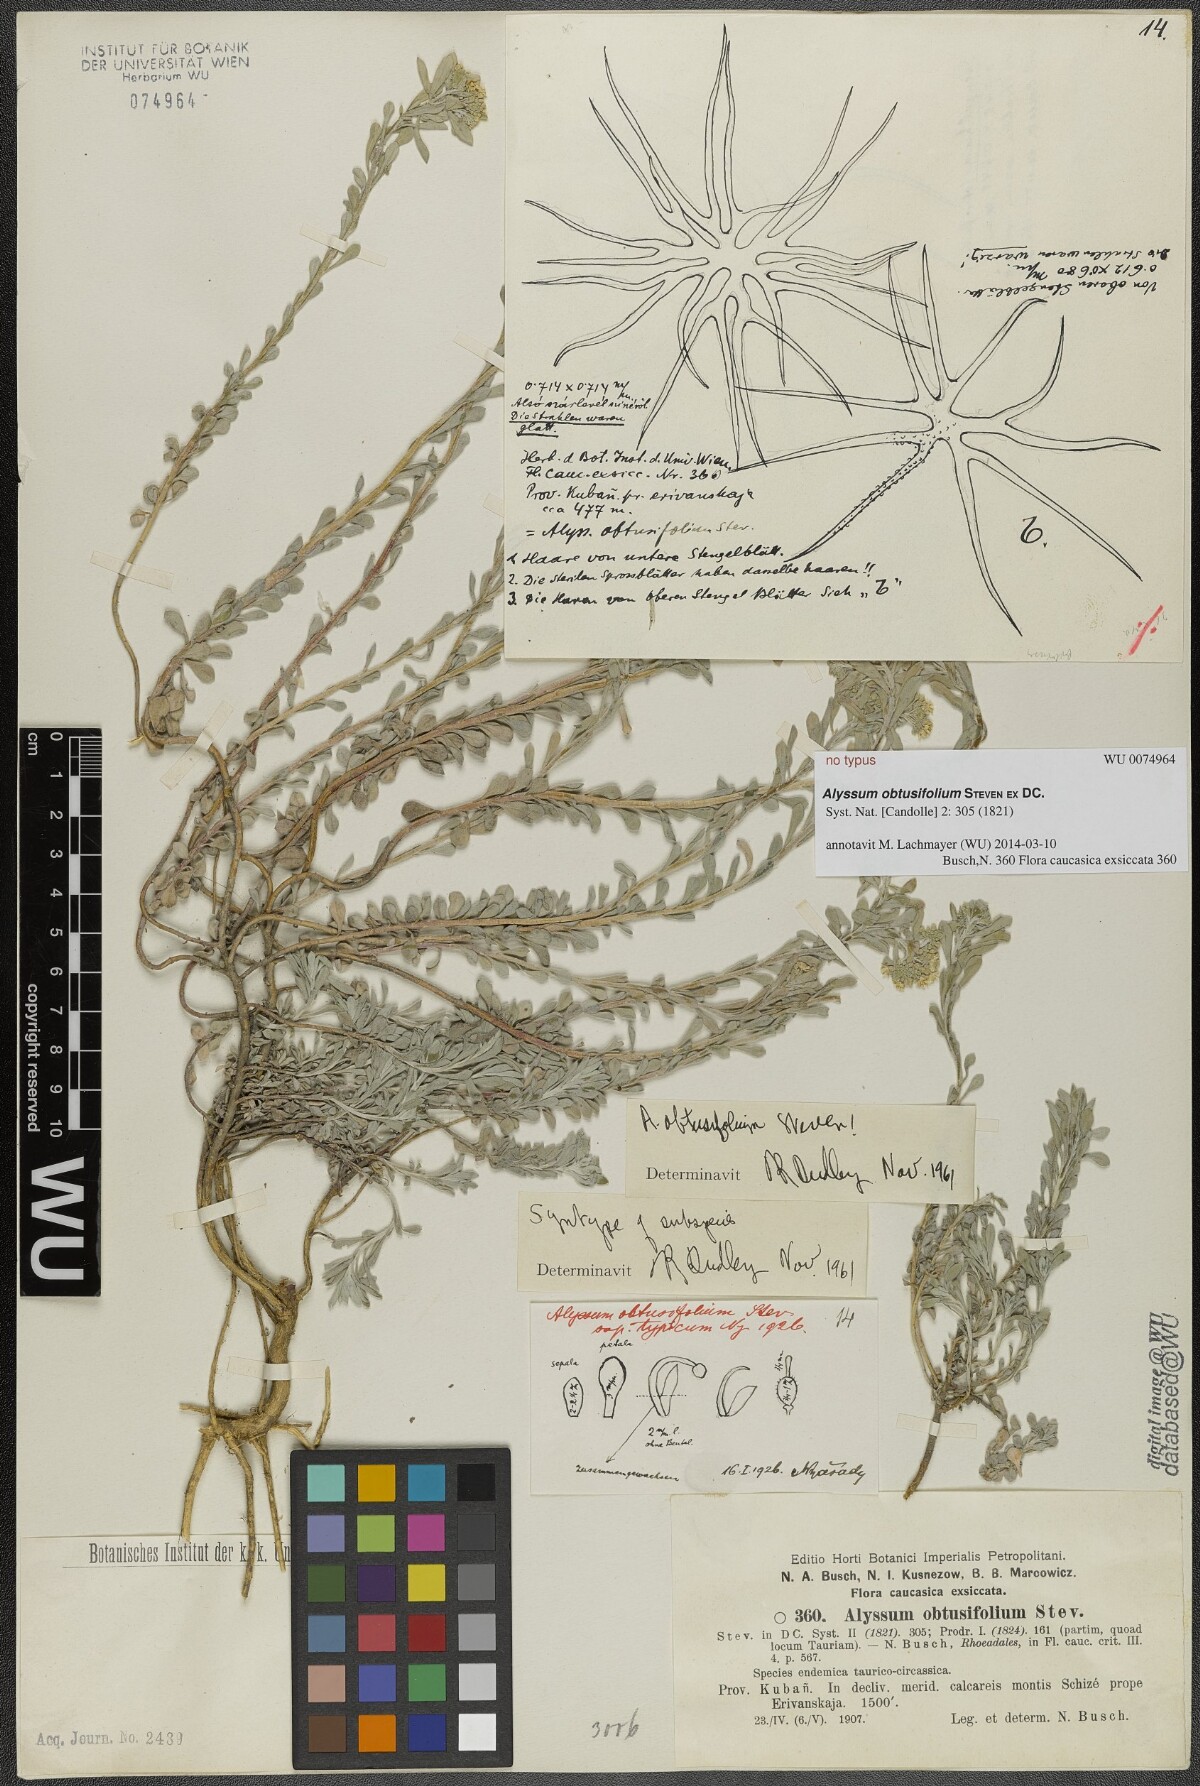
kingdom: Plantae
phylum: Tracheophyta
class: Magnoliopsida
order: Brassicales
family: Brassicaceae
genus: Odontarrhena
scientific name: Odontarrhena obtusifolia
